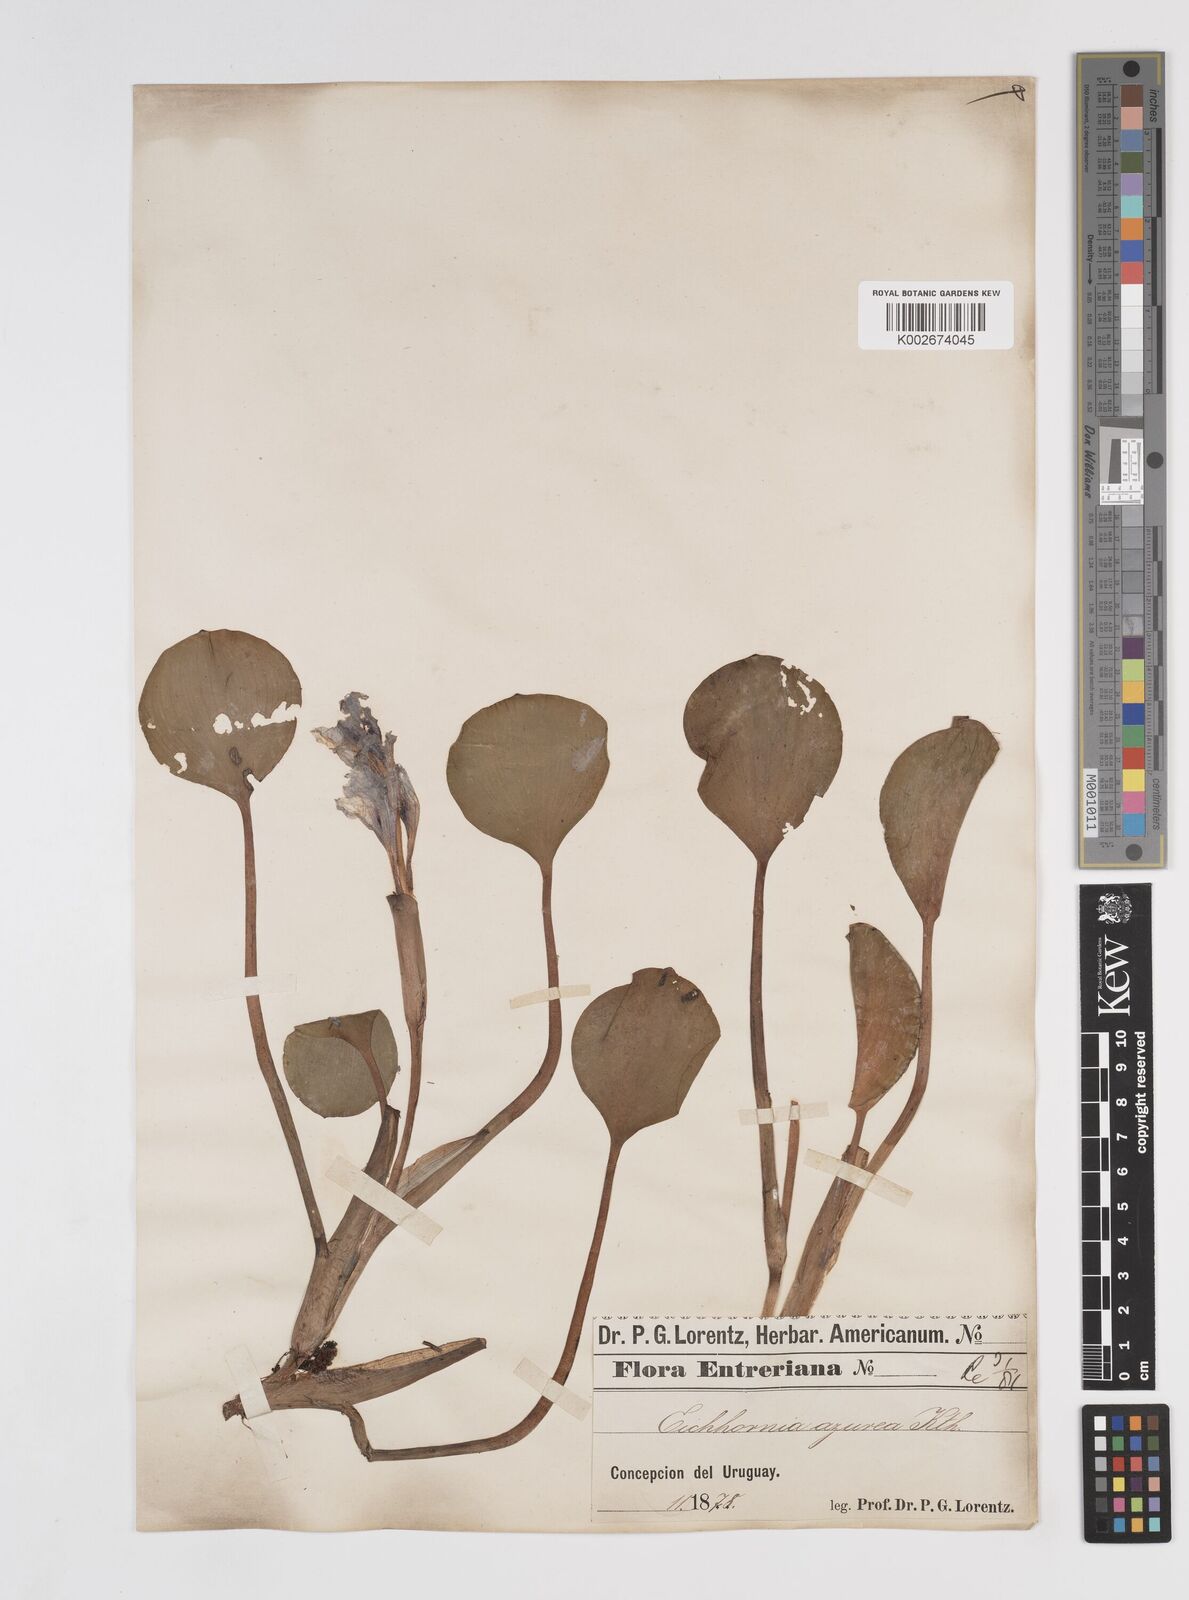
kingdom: Plantae
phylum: Tracheophyta
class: Liliopsida
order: Commelinales
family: Pontederiaceae
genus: Pontederia
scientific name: Pontederia azurea
